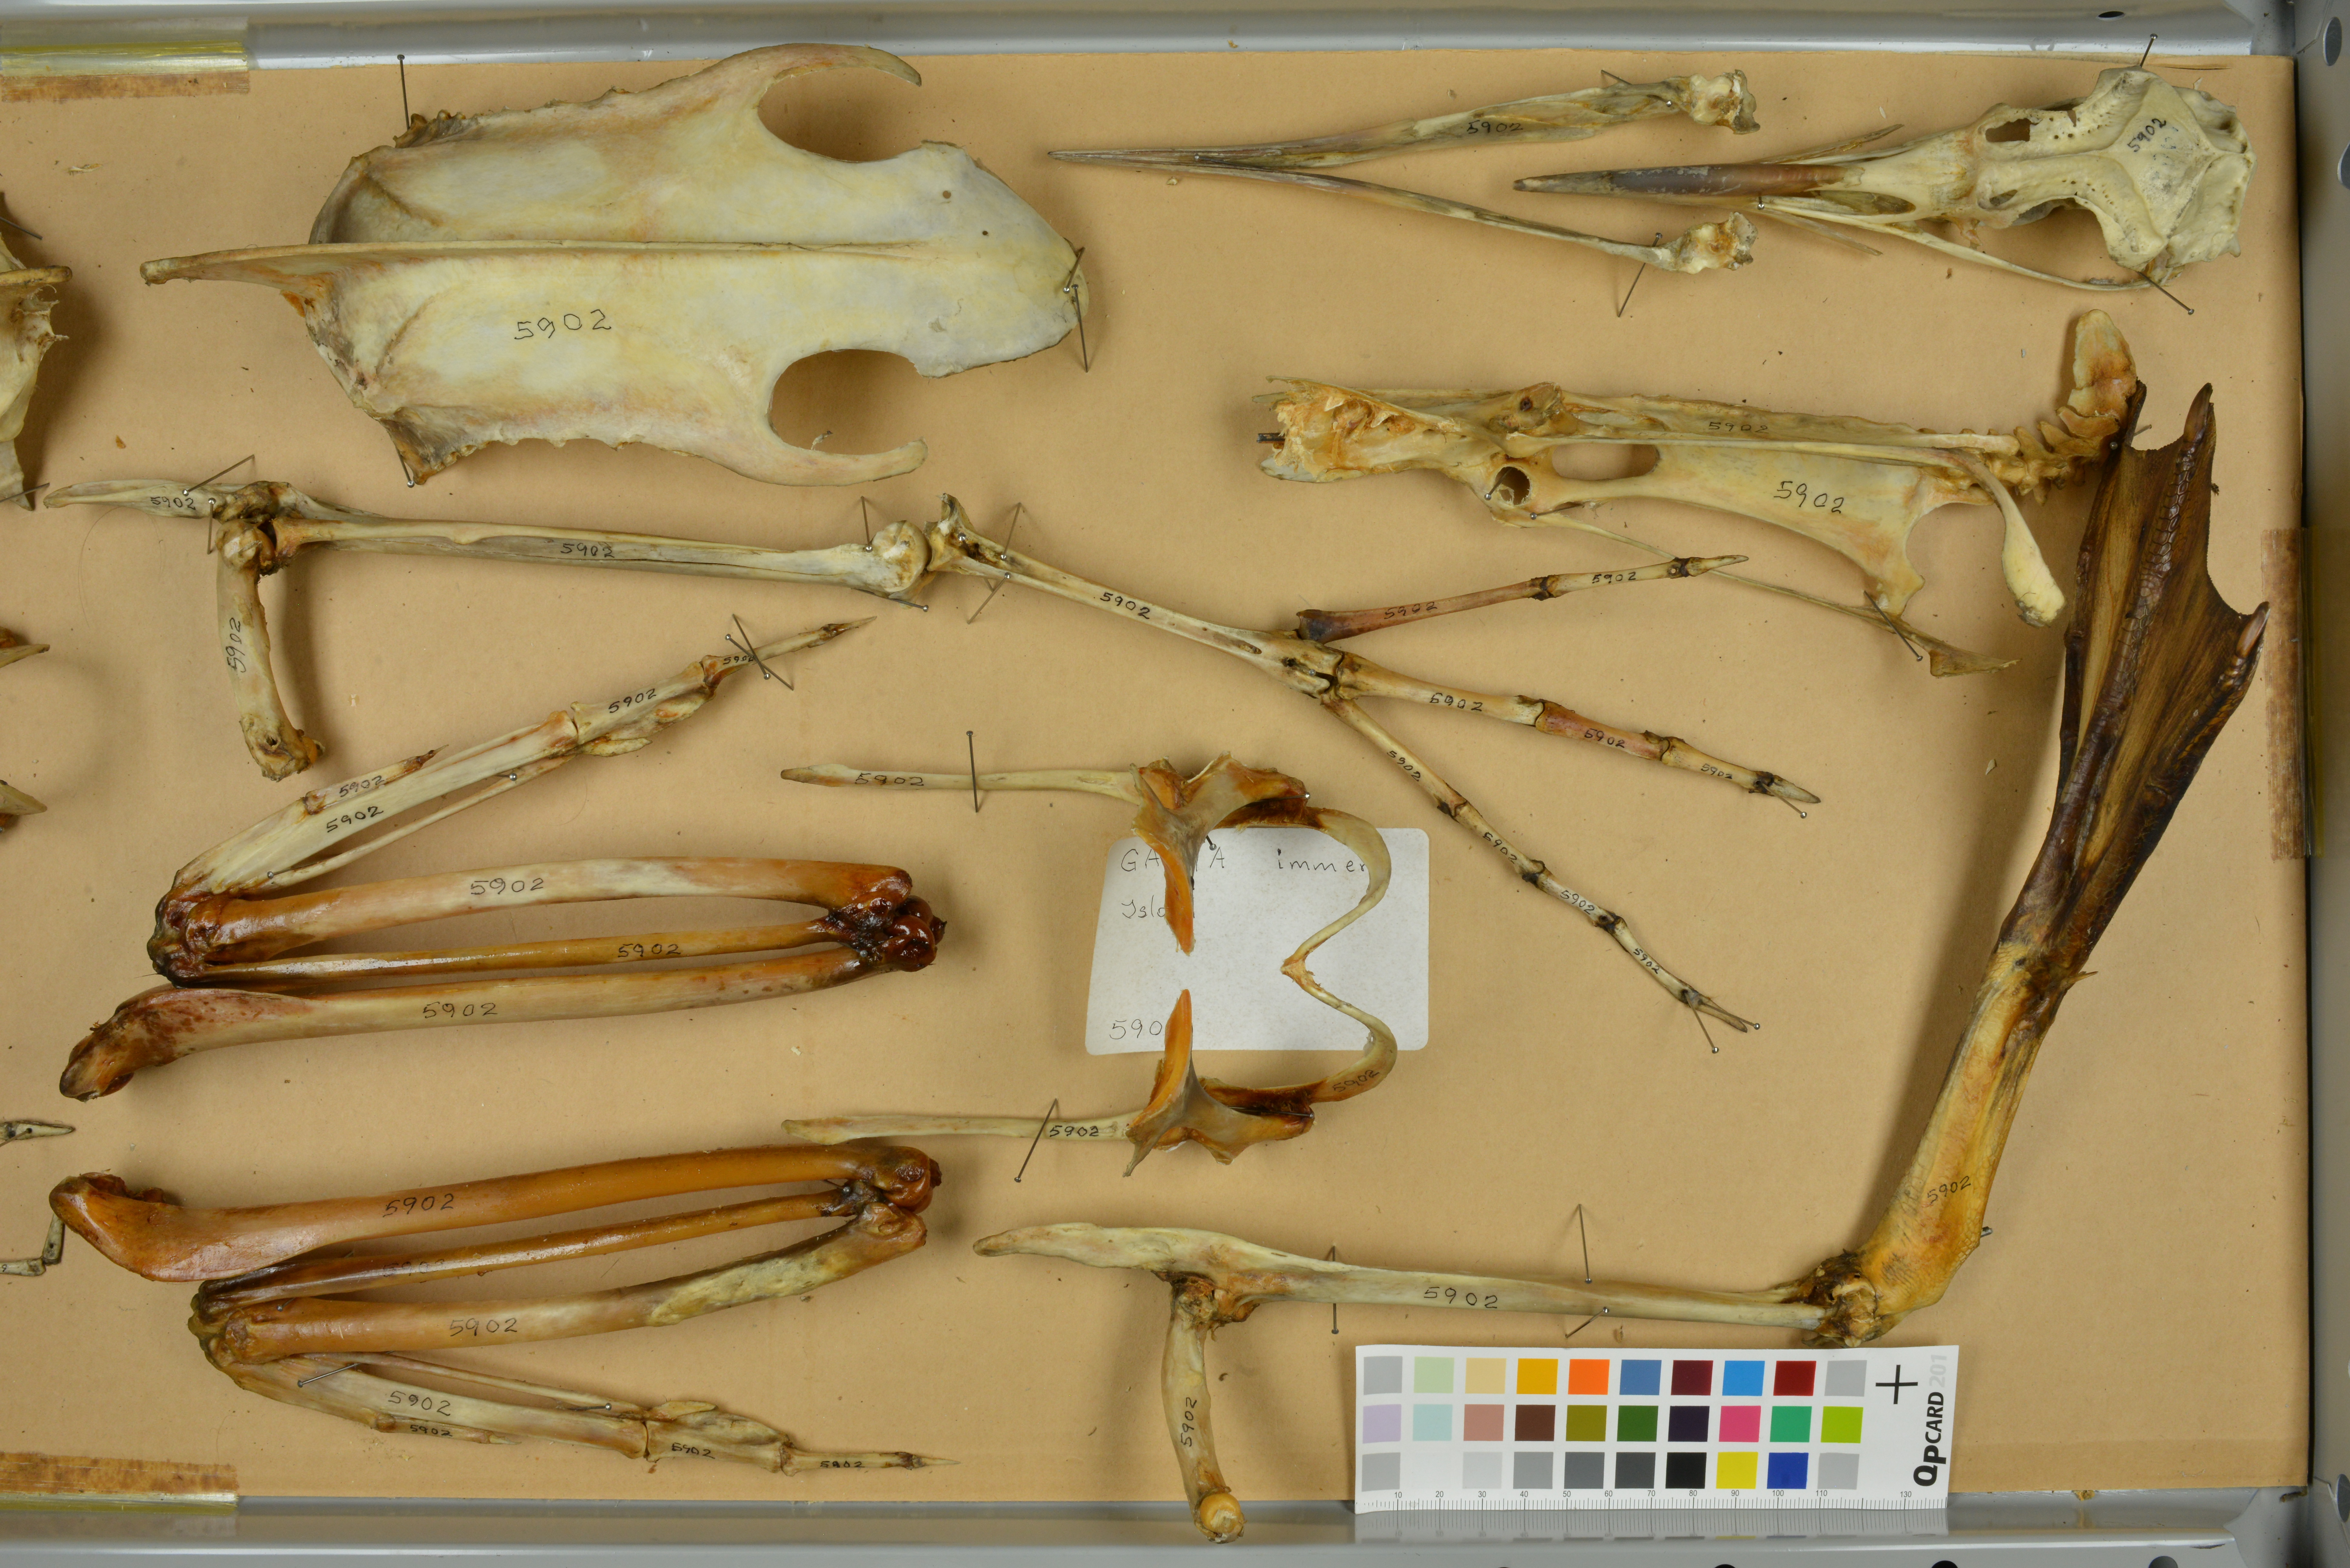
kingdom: Animalia
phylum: Chordata
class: Aves
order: Gaviiformes
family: Gaviidae
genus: Gavia
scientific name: Gavia immer
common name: Common loon
